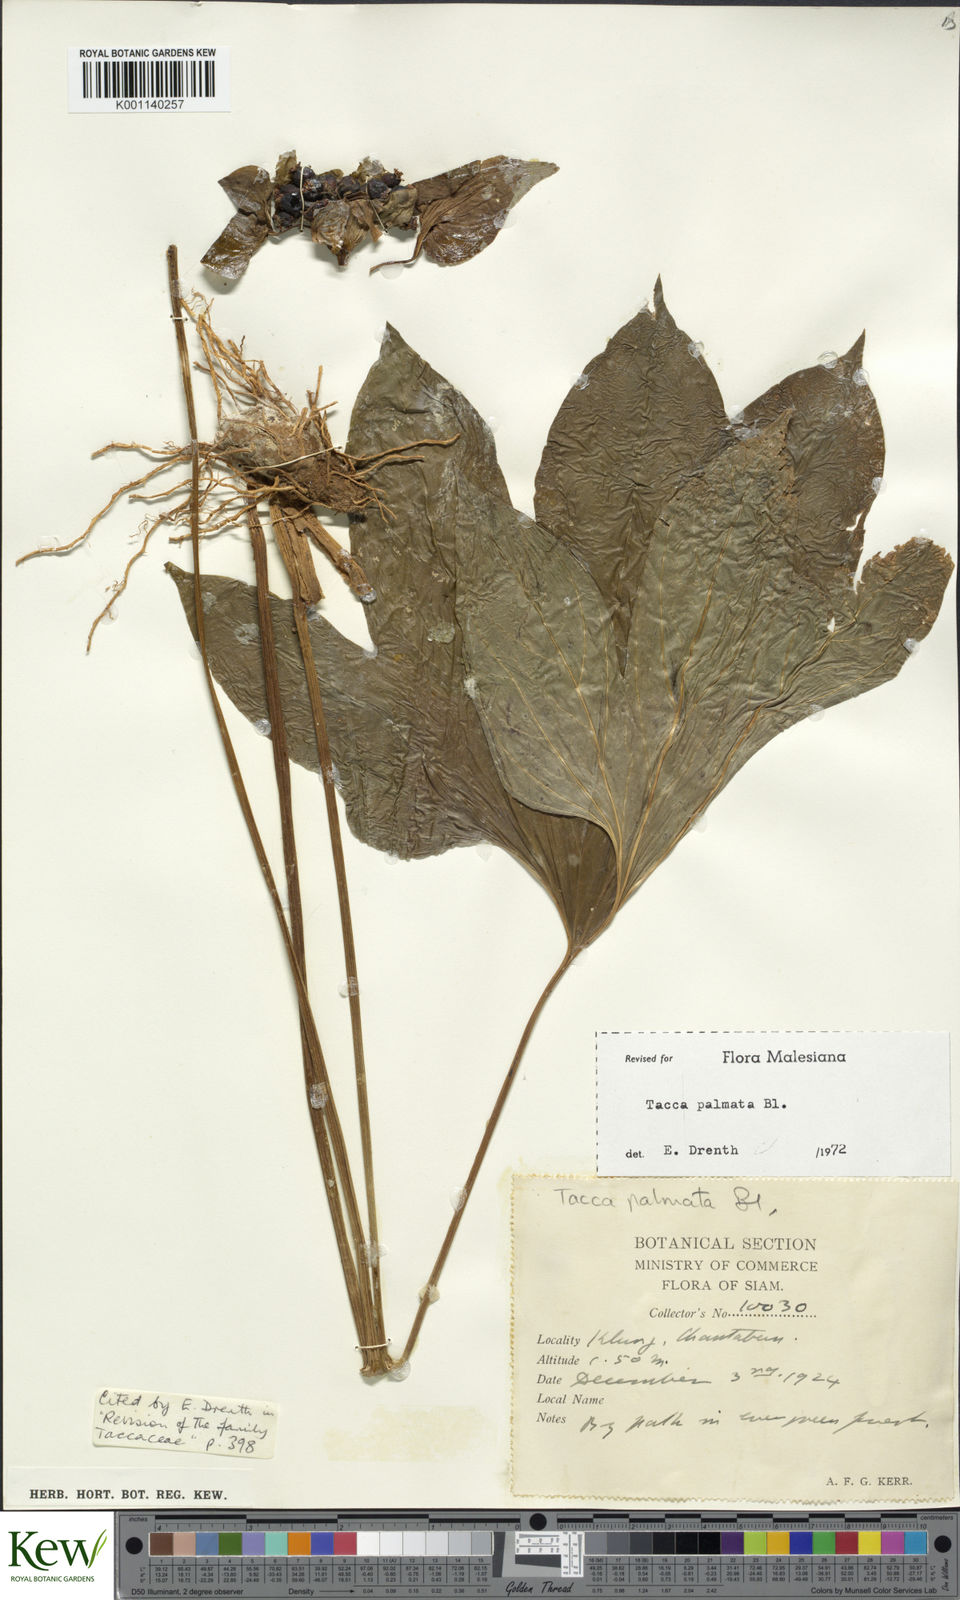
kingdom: Plantae
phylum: Tracheophyta
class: Liliopsida
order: Dioscoreales
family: Dioscoreaceae
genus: Tacca
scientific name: Tacca palmata
